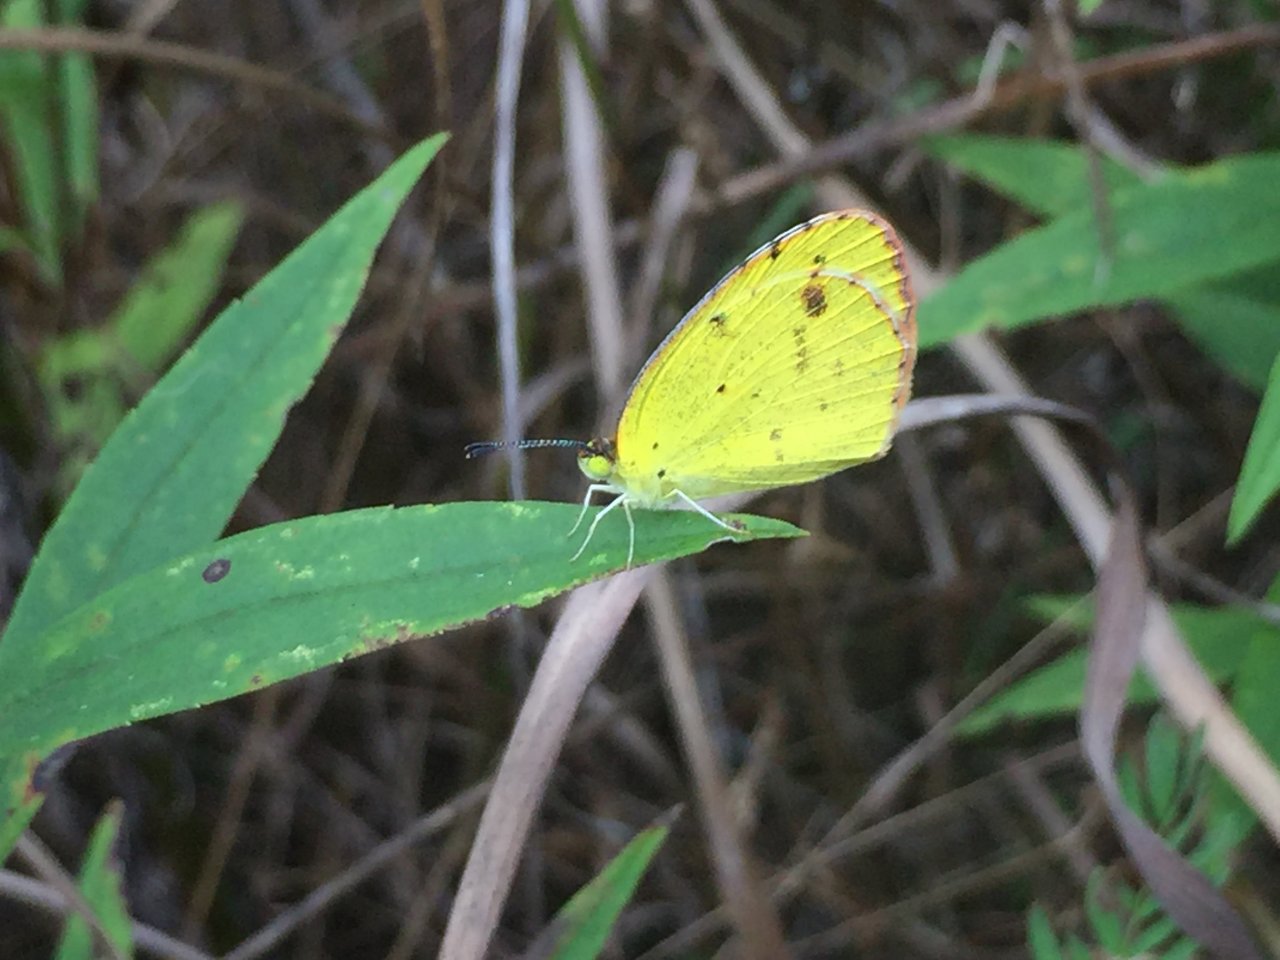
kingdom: Animalia
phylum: Arthropoda
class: Insecta
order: Lepidoptera
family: Pieridae
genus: Pyrisitia
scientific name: Pyrisitia lisa
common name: Little Yellow
